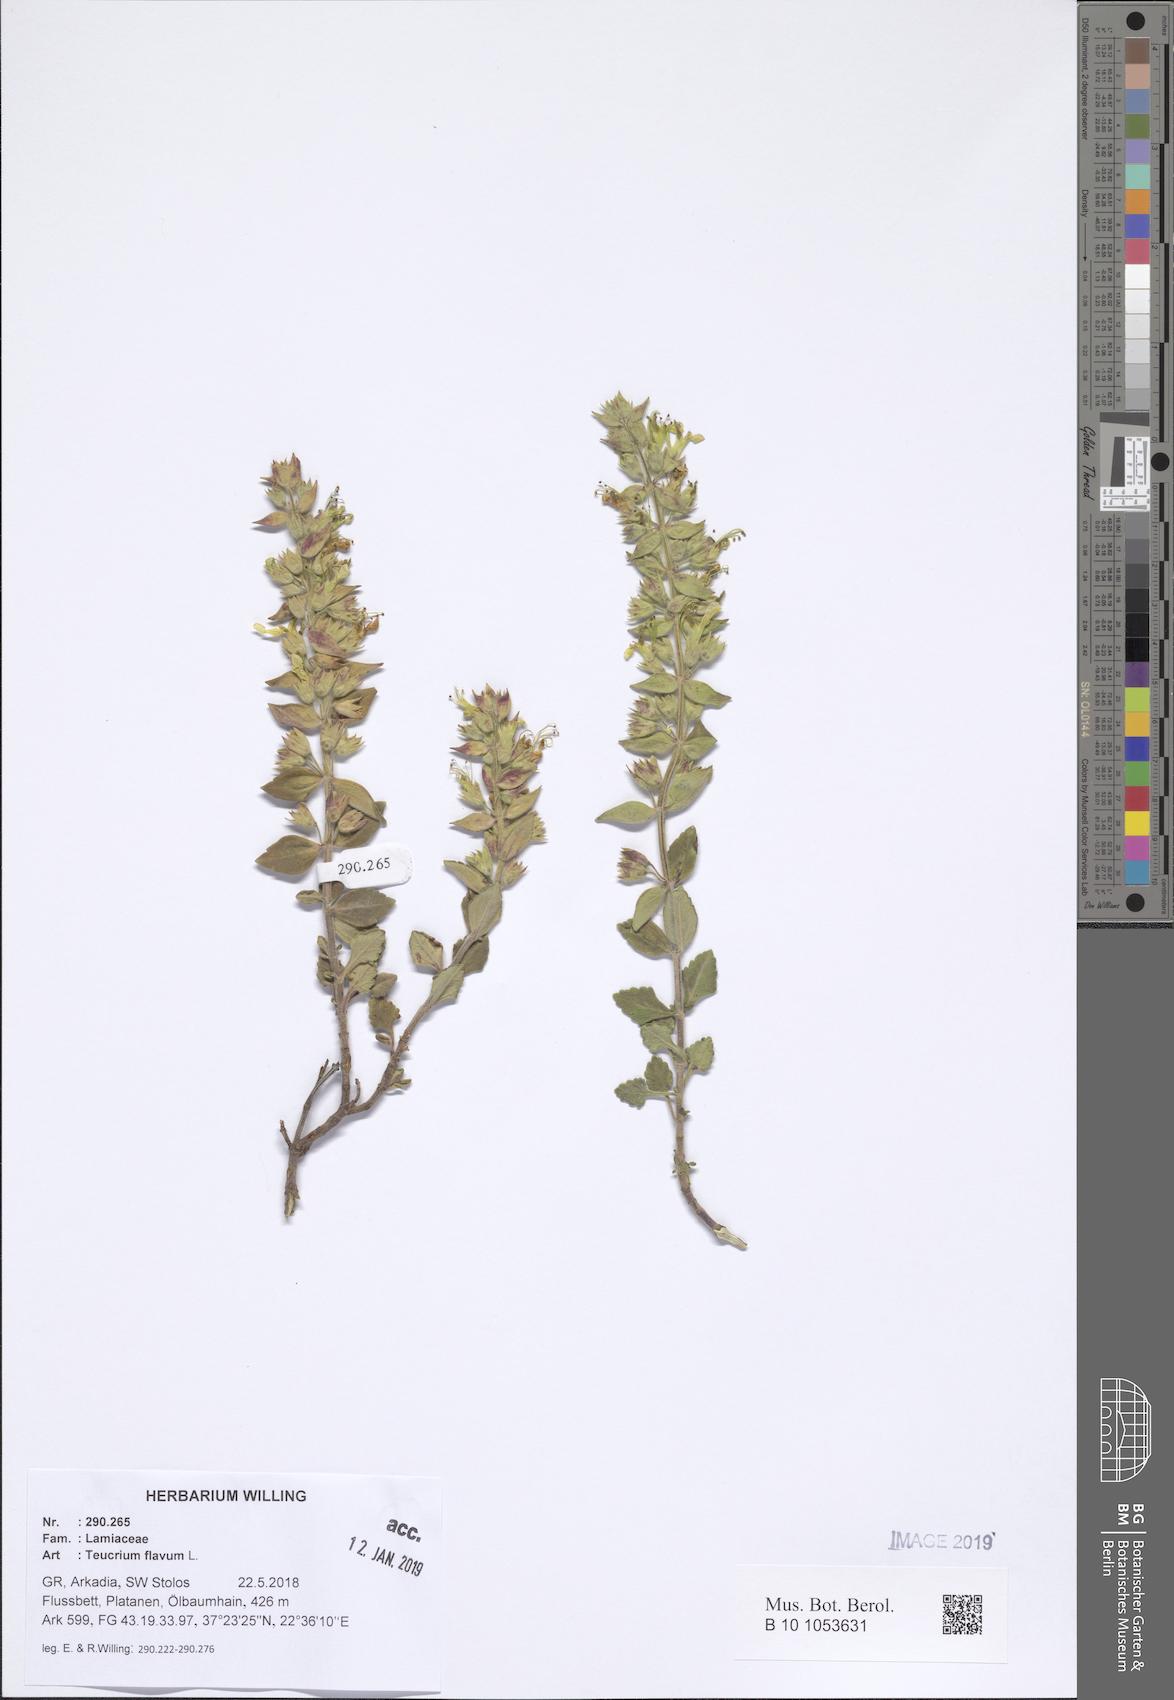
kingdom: Plantae
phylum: Tracheophyta
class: Magnoliopsida
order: Lamiales
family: Lamiaceae
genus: Teucrium
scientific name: Teucrium flavum
